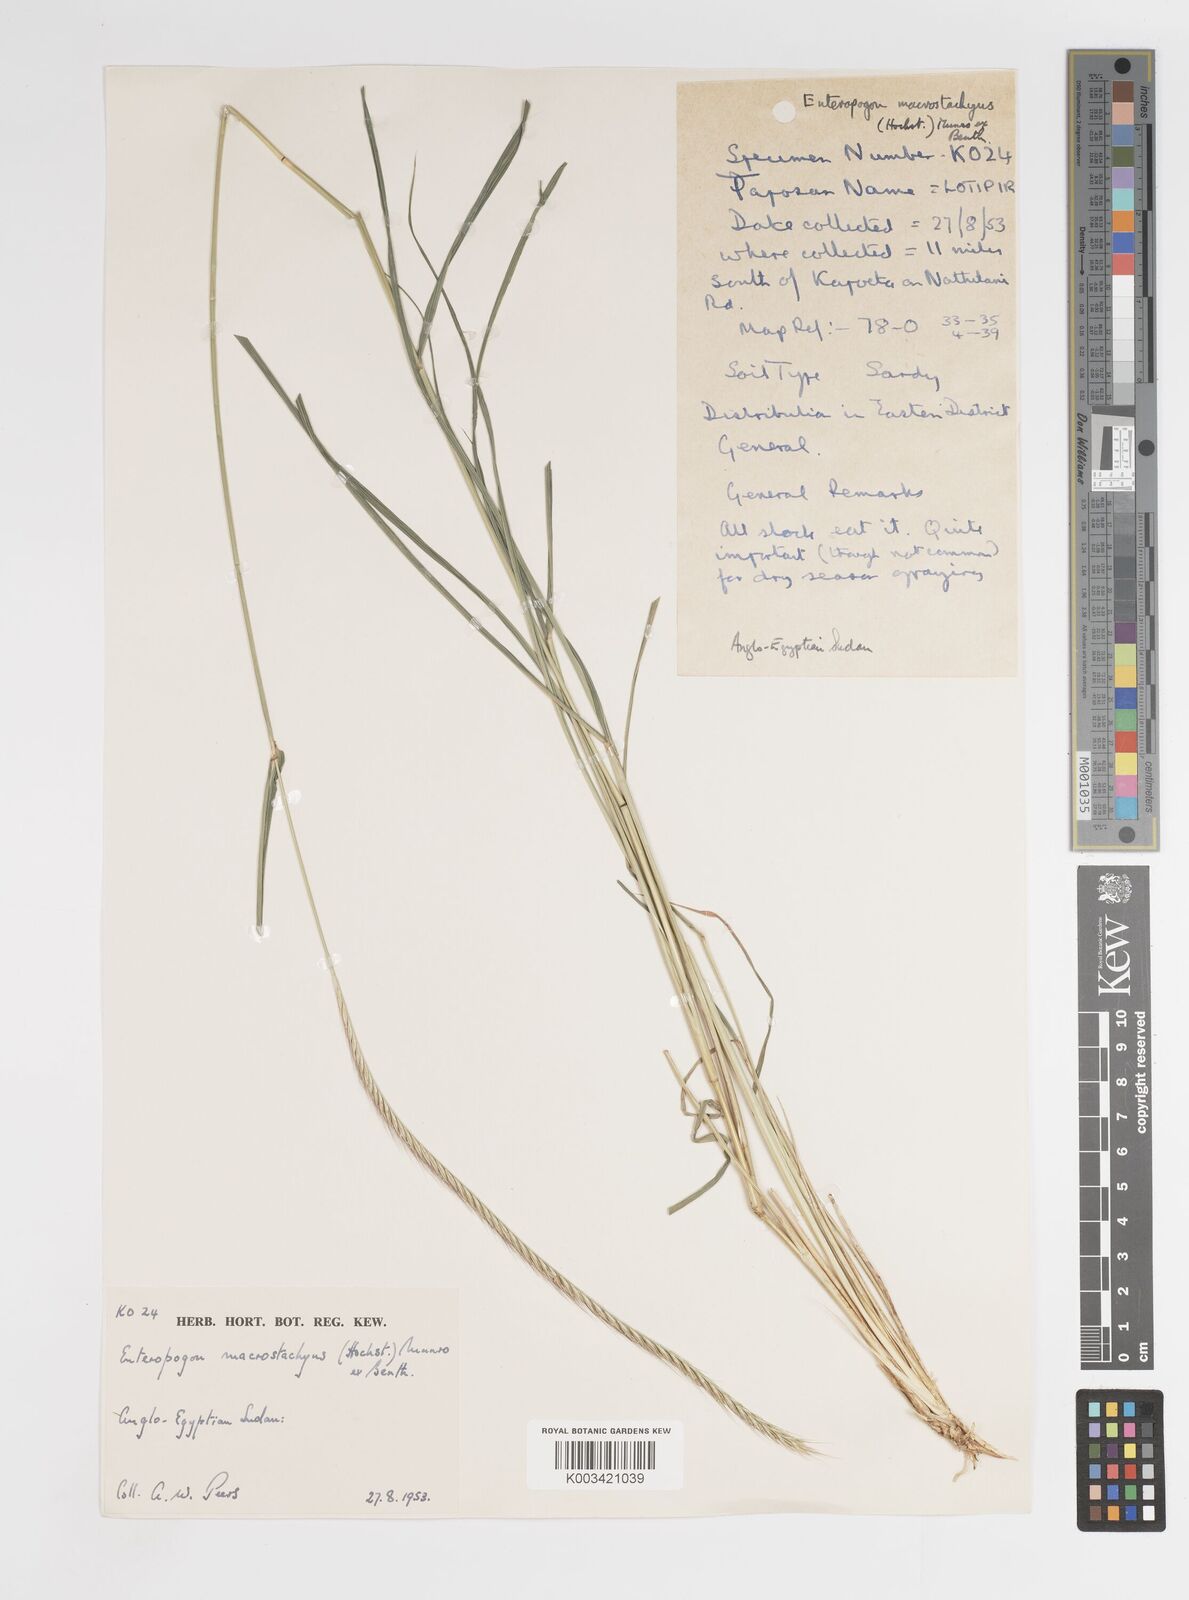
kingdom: Plantae
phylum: Tracheophyta
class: Liliopsida
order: Poales
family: Poaceae
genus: Enteropogon
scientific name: Enteropogon macrostachyus
